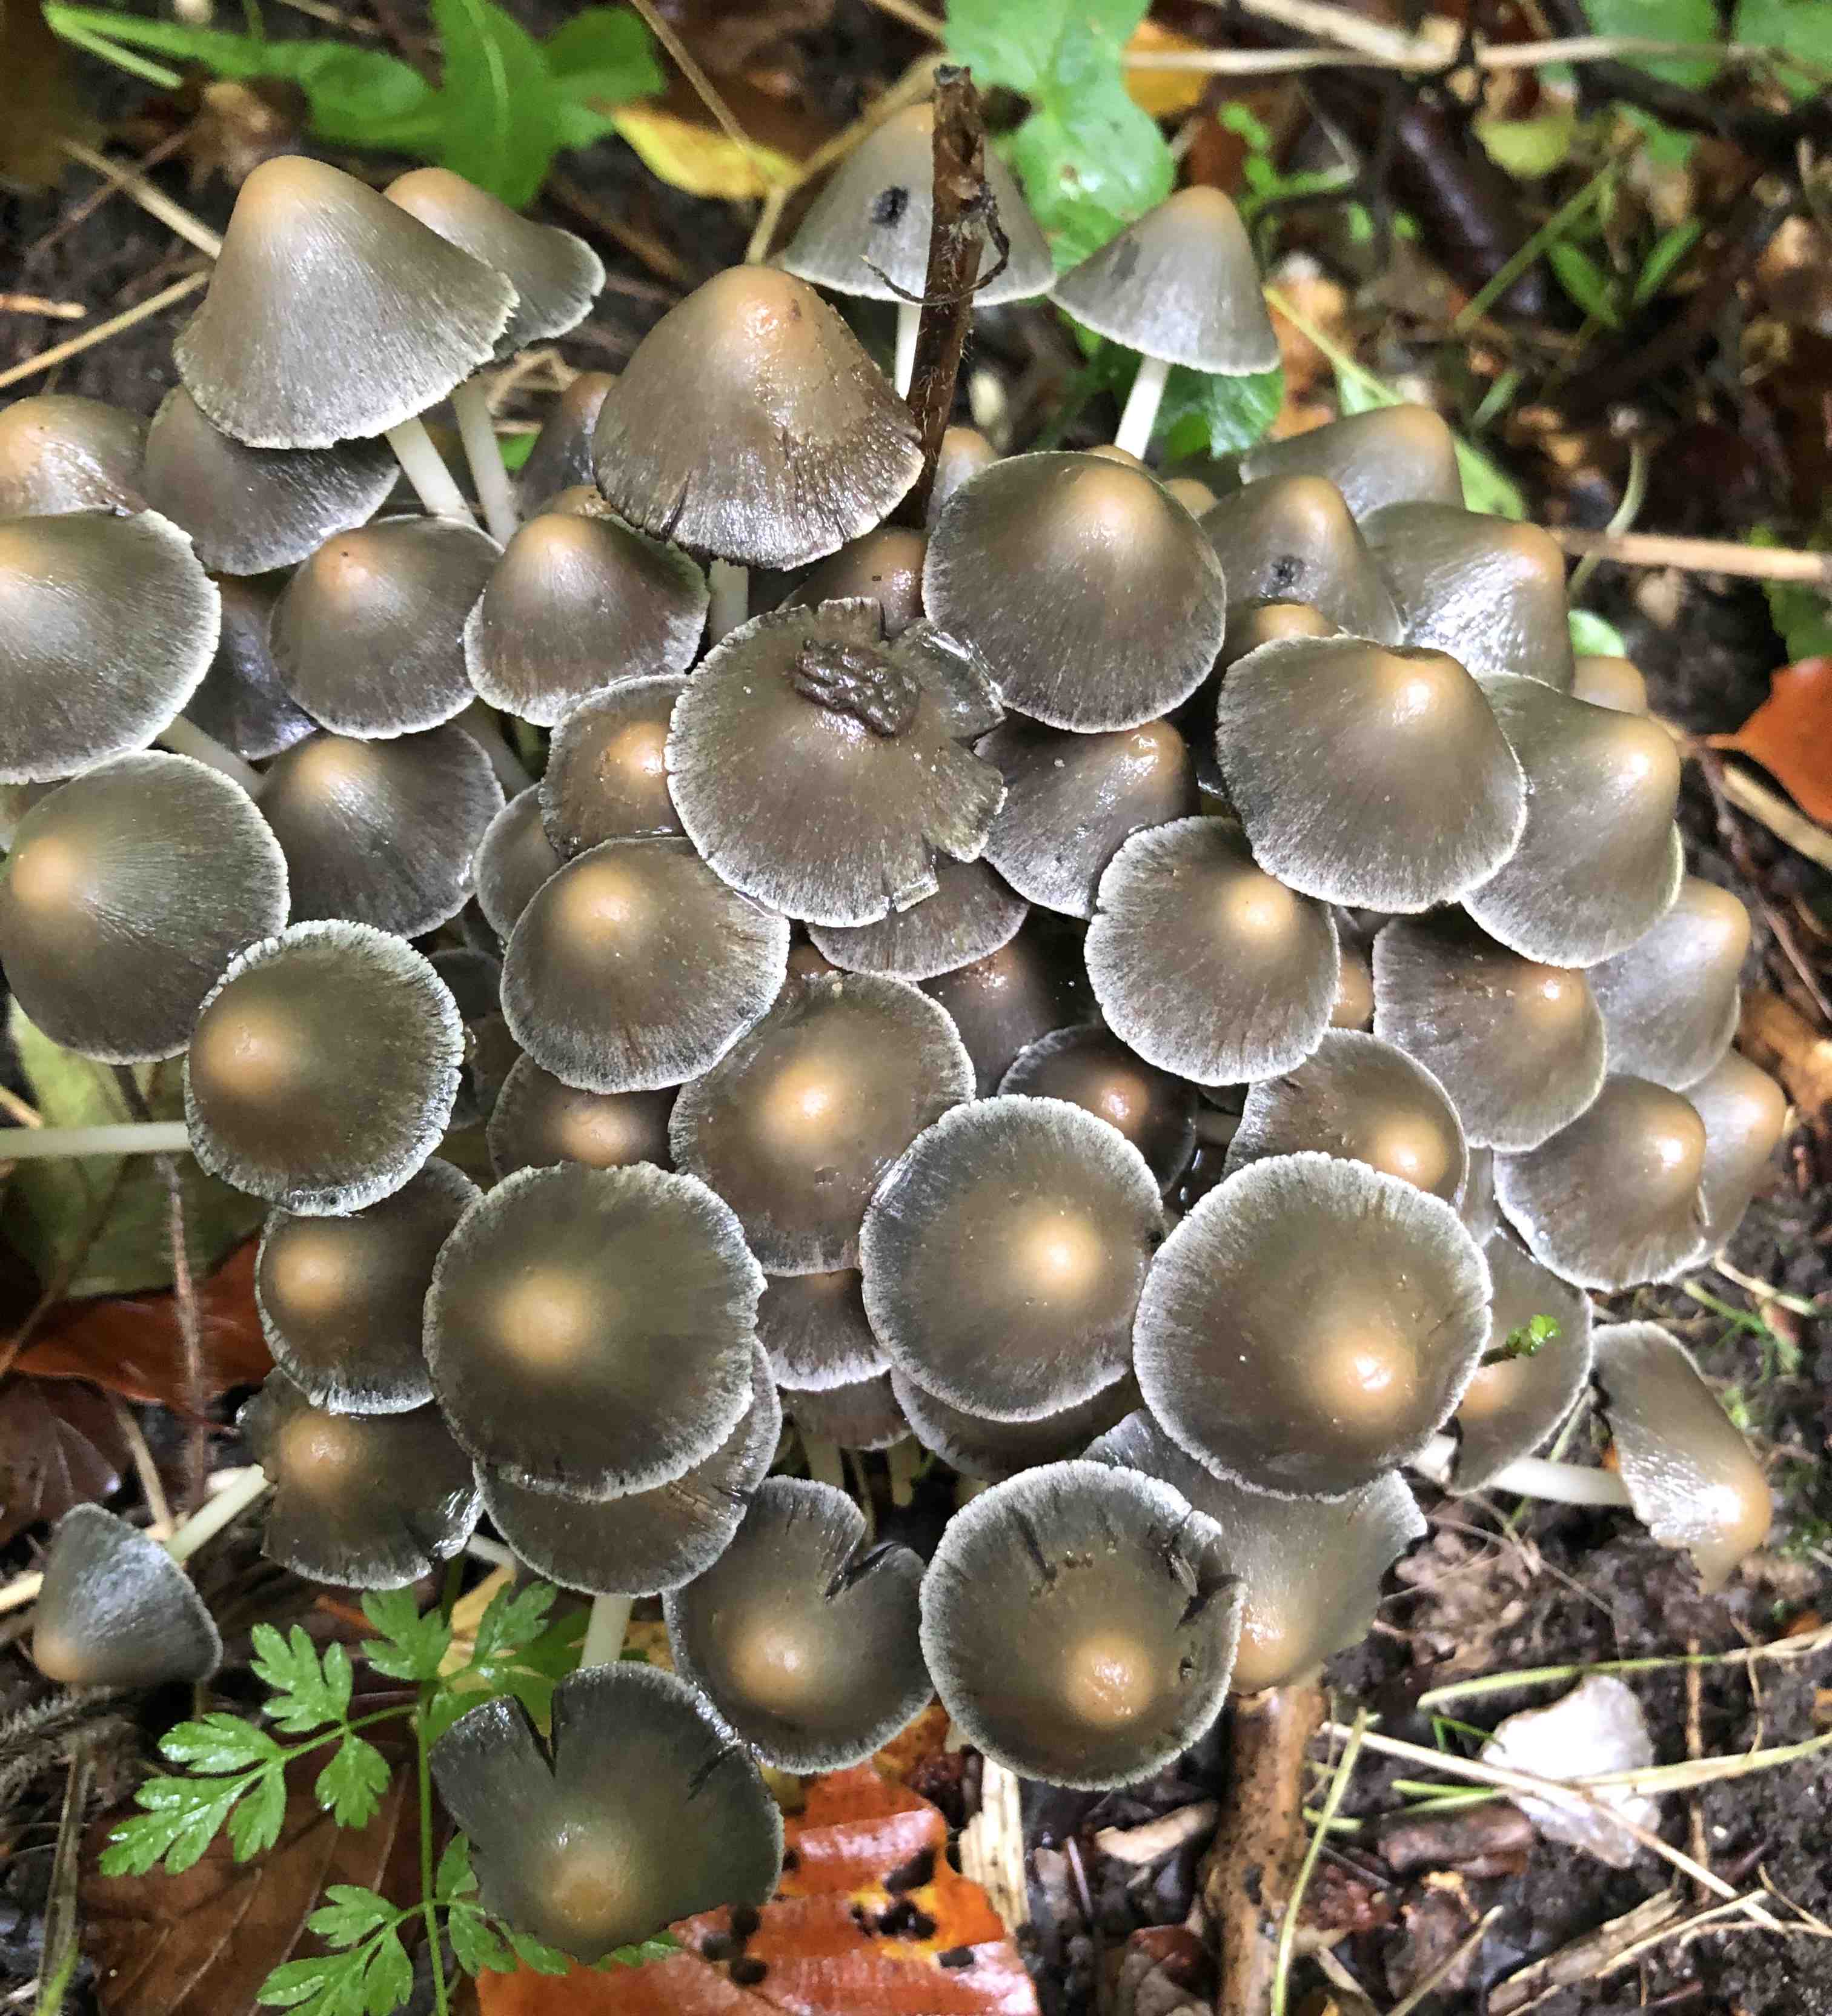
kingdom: Fungi
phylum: Basidiomycota
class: Agaricomycetes
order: Agaricales
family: Psathyrellaceae
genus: Britzelmayria
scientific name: Britzelmayria multipedata
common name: knippe-mørkhat
